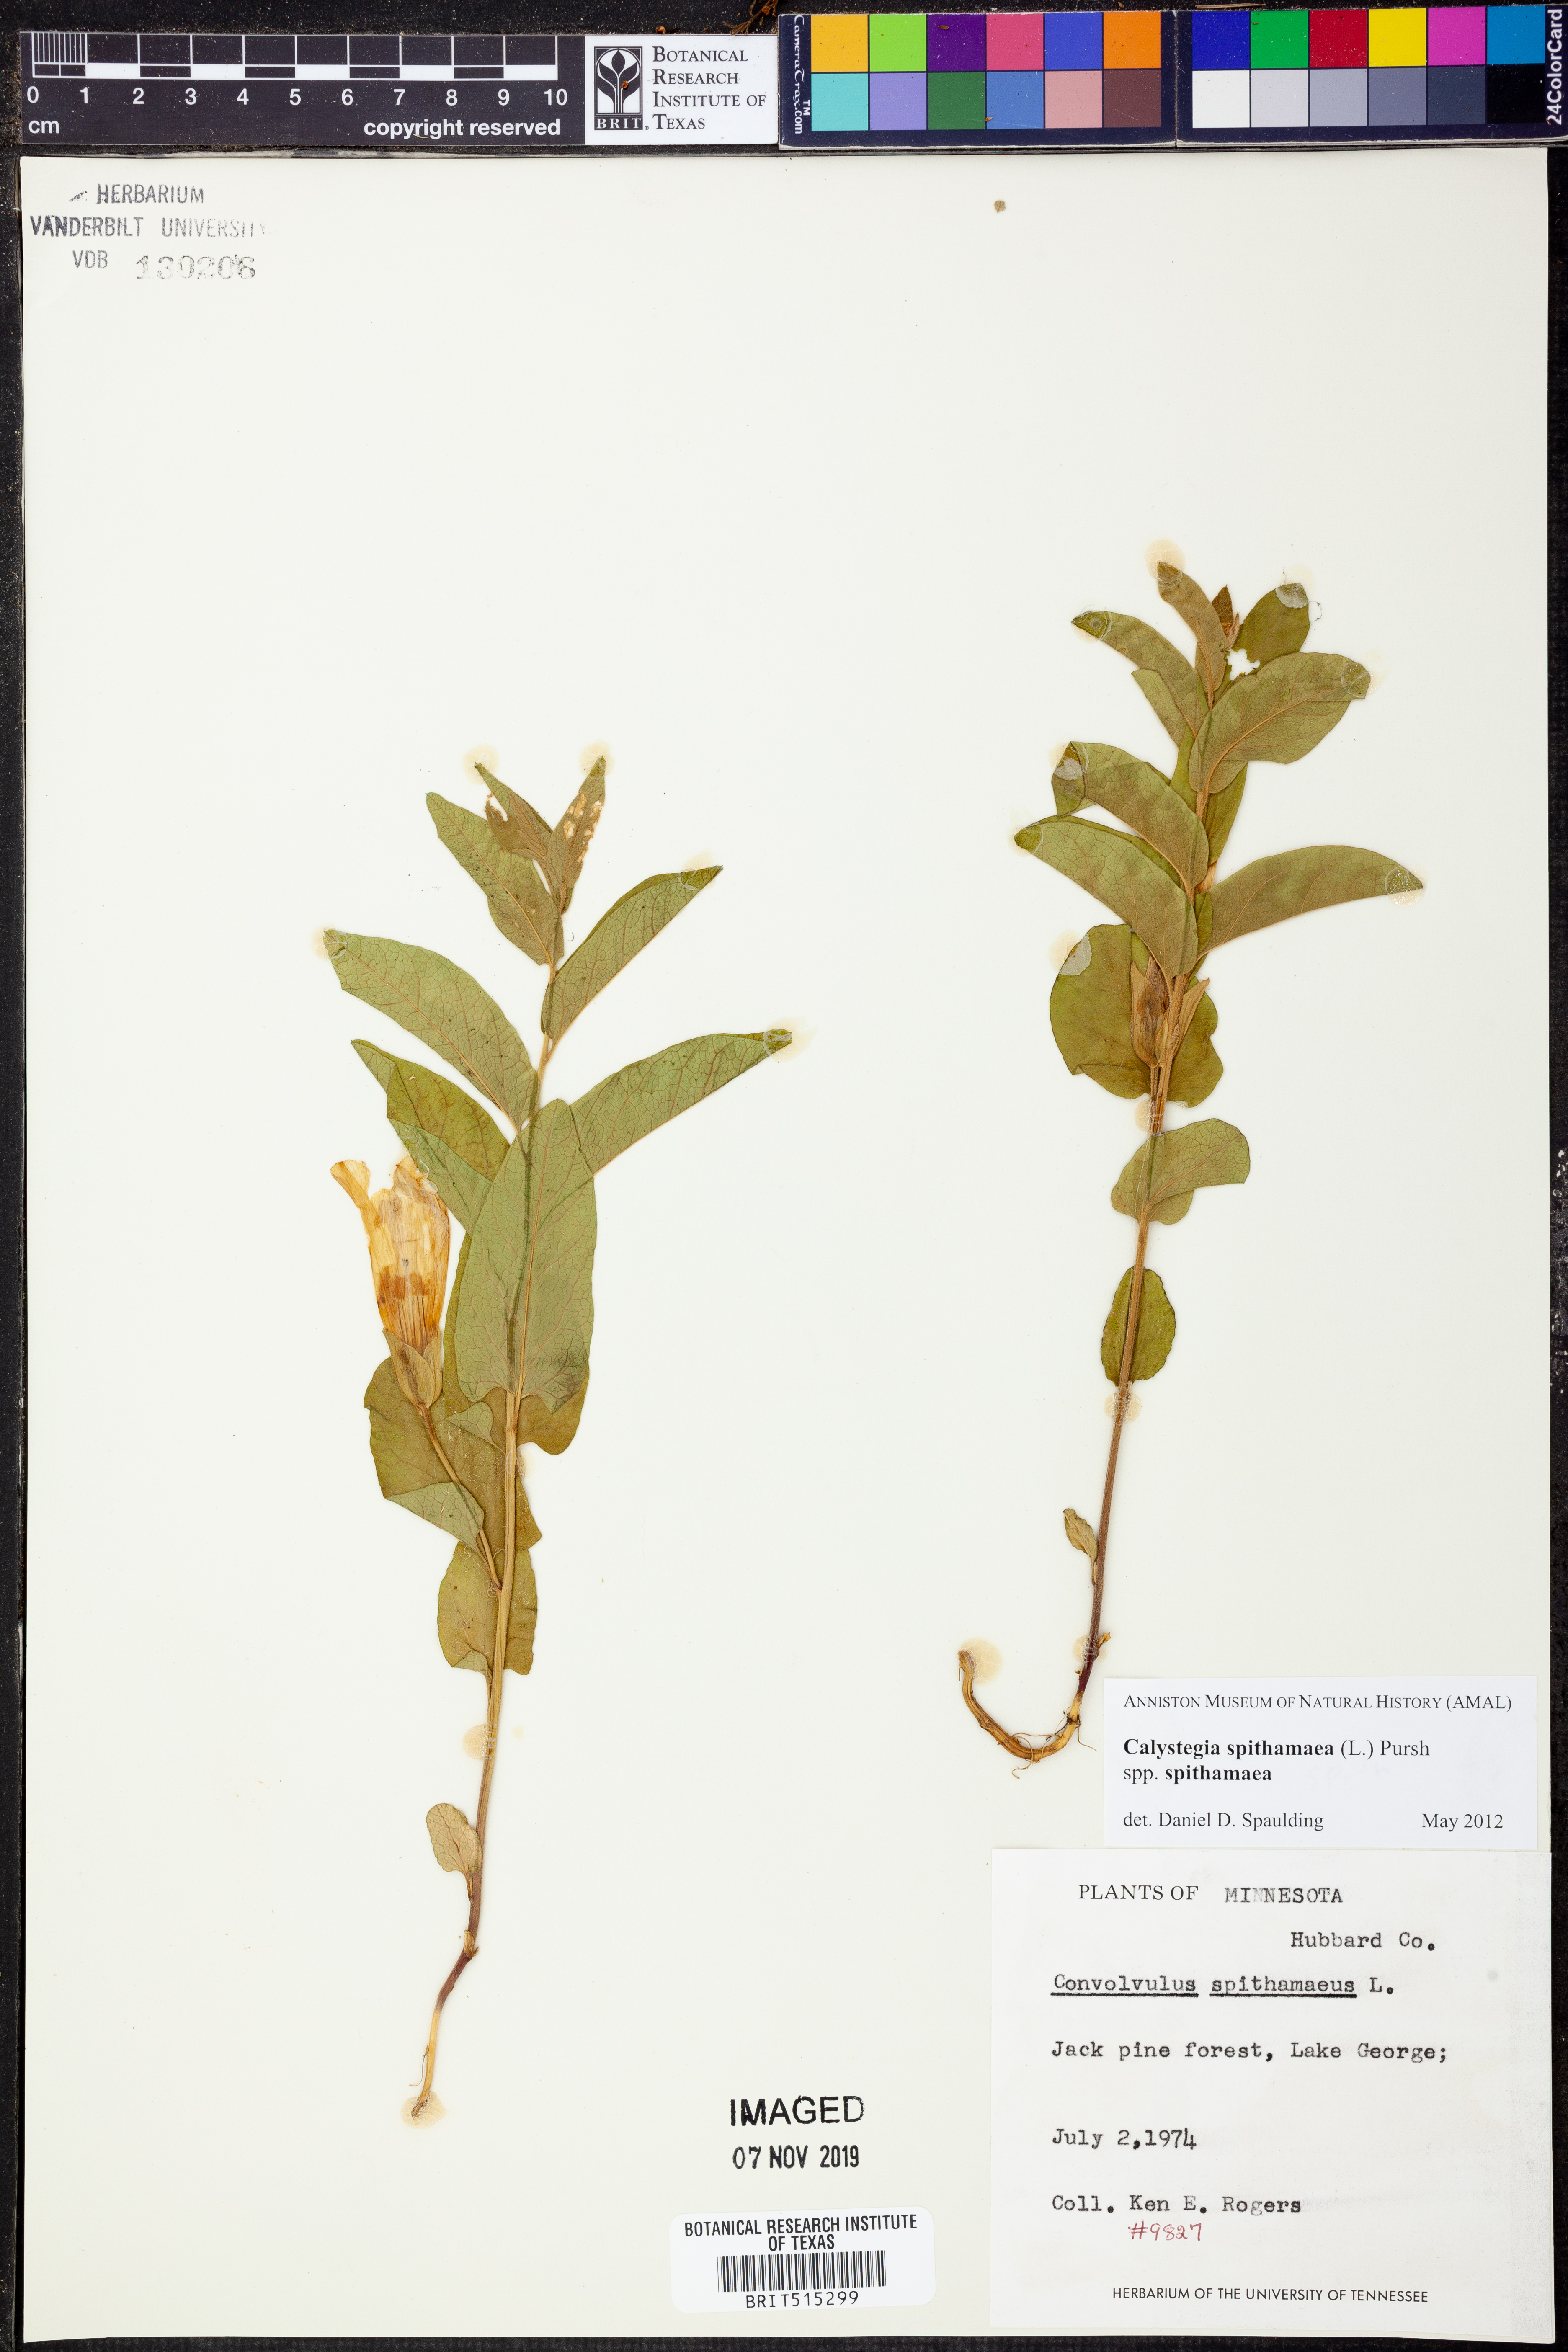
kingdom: Plantae
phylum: Tracheophyta
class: Magnoliopsida
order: Solanales
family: Convolvulaceae
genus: Calystegia
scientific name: Calystegia spithamaea
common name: Dwarf bindweed
